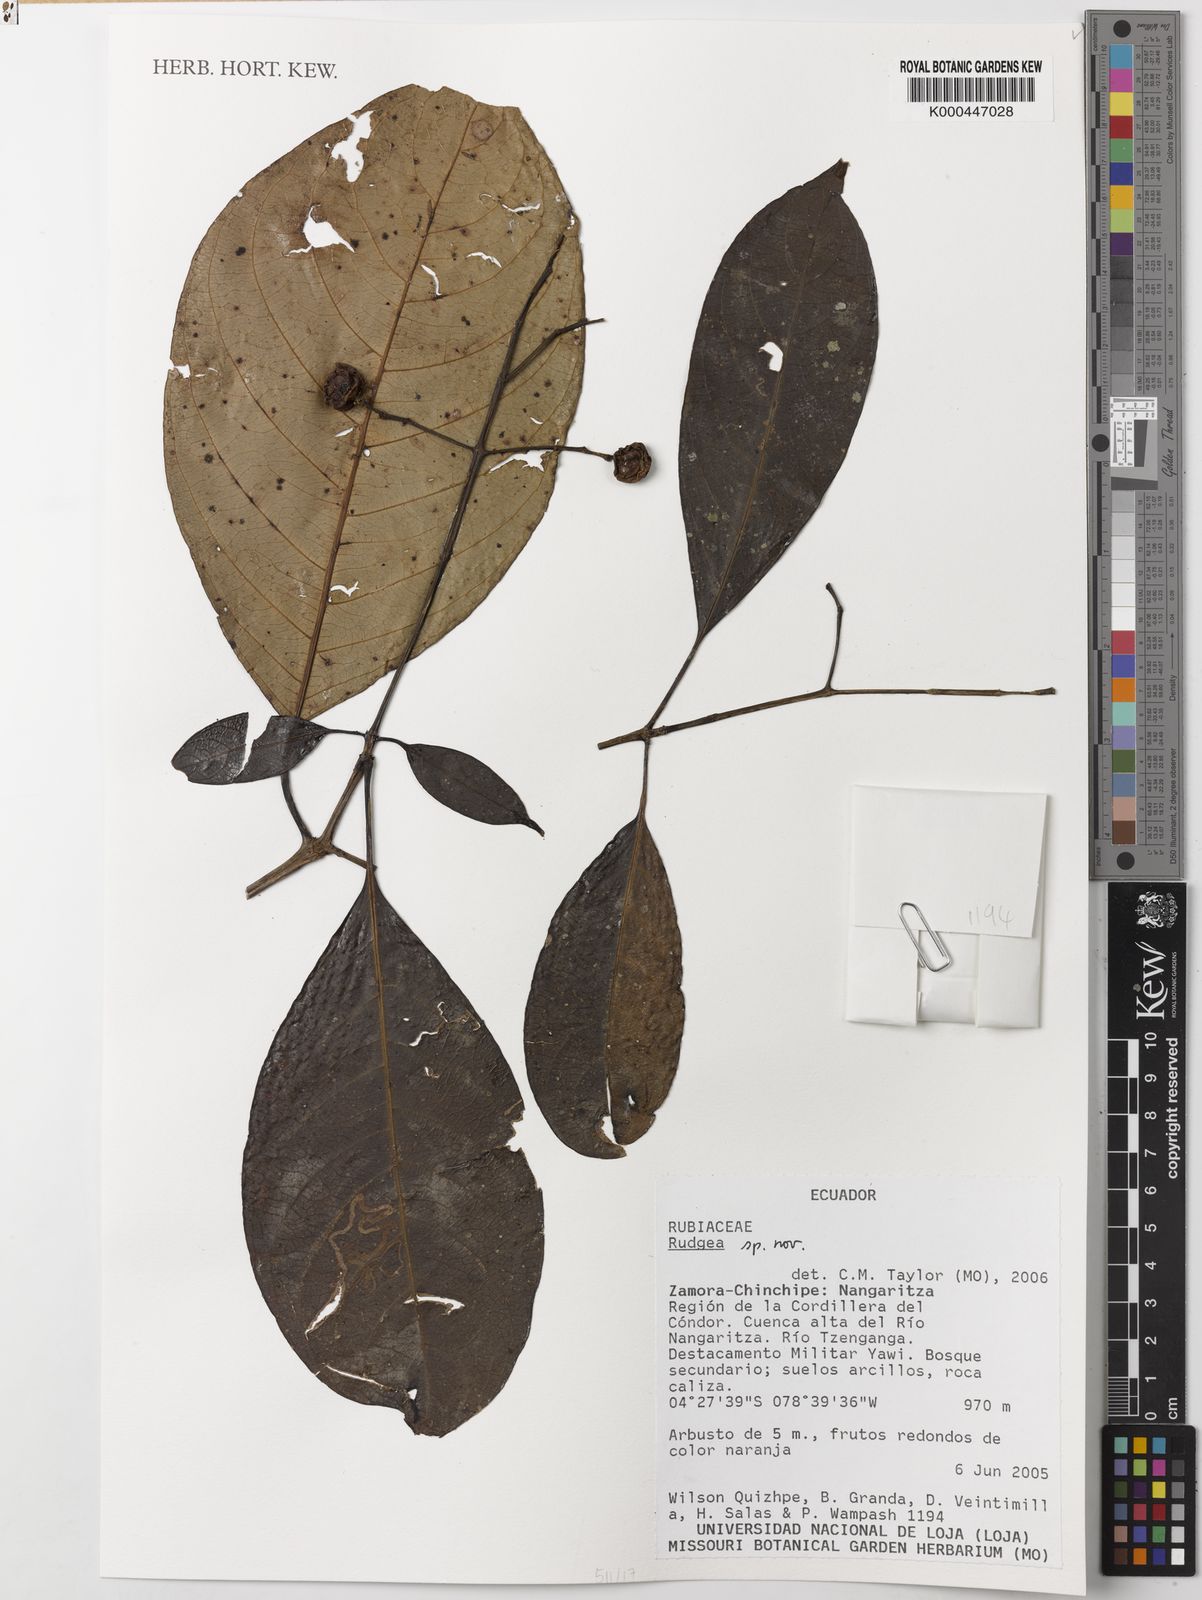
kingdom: Plantae
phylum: Tracheophyta
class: Magnoliopsida
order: Gentianales
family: Rubiaceae
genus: Rudgea
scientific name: Rudgea
